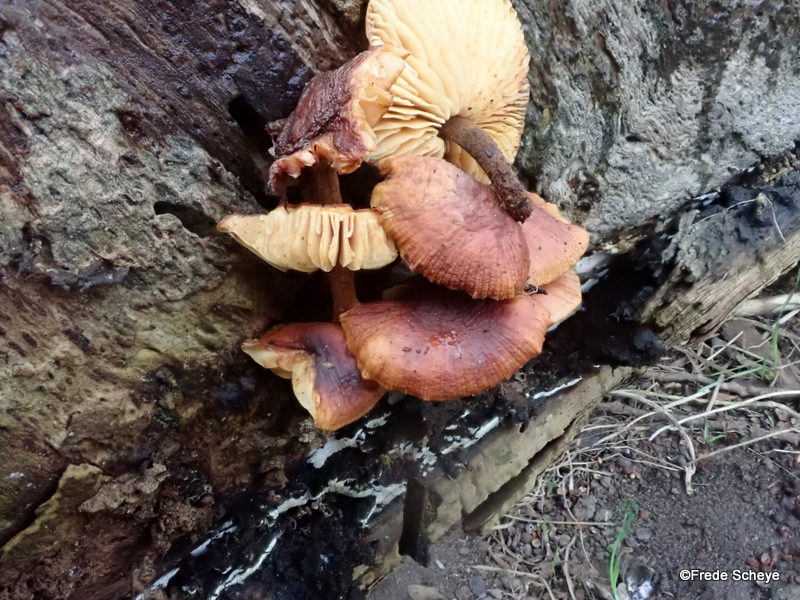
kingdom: Fungi
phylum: Basidiomycota
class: Agaricomycetes
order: Agaricales
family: Physalacriaceae
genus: Flammulina
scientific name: Flammulina velutipes
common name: gul fløjlsfod
